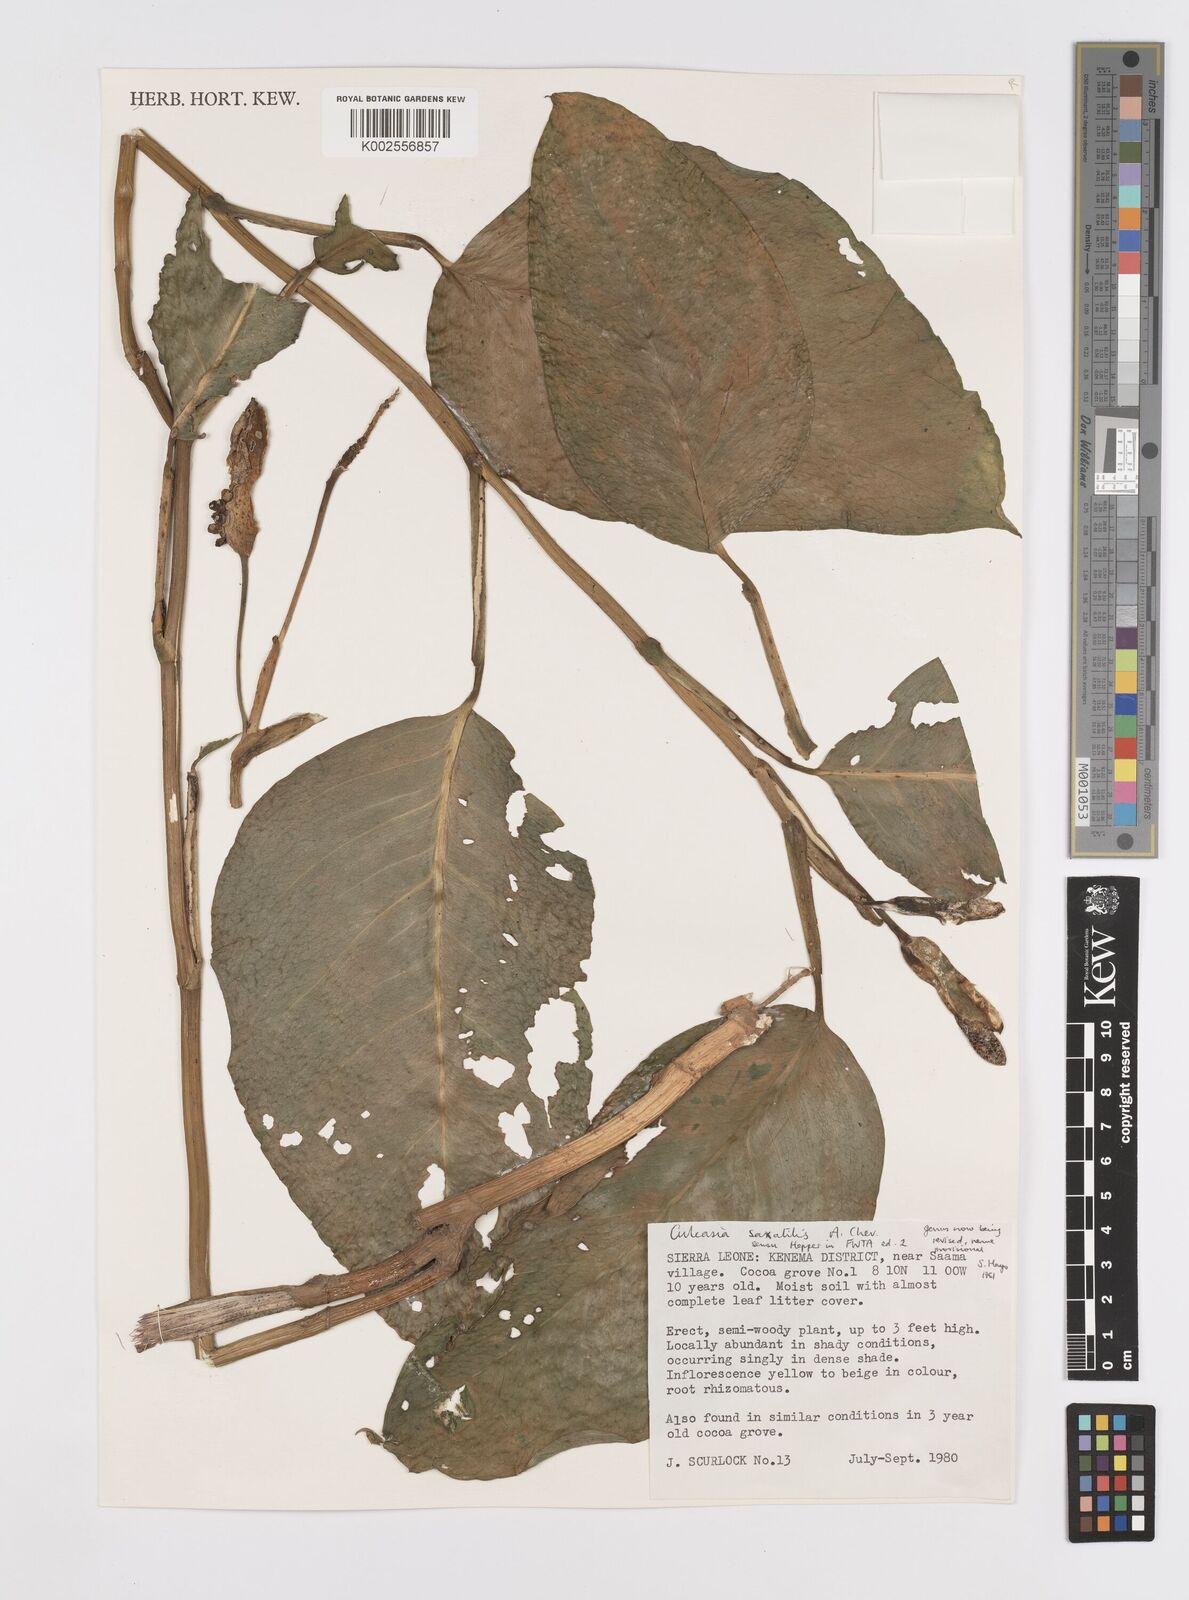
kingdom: Plantae
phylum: Tracheophyta
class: Liliopsida
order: Alismatales
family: Araceae
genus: Culcasia
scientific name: Culcasia scandens
